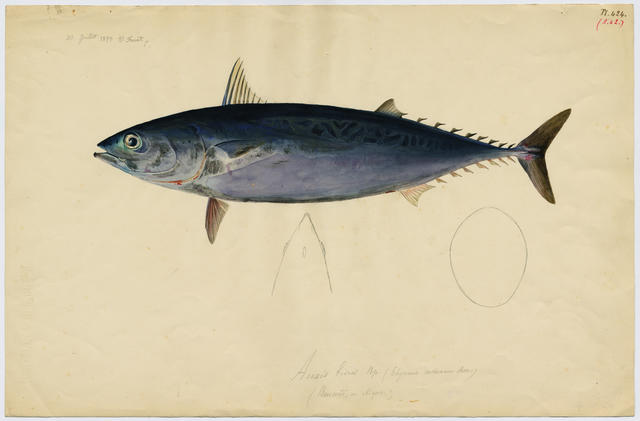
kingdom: Animalia
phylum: Chordata
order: Perciformes
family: Scombridae
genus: Auxis
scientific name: Auxis rochei
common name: Bullet tuna
